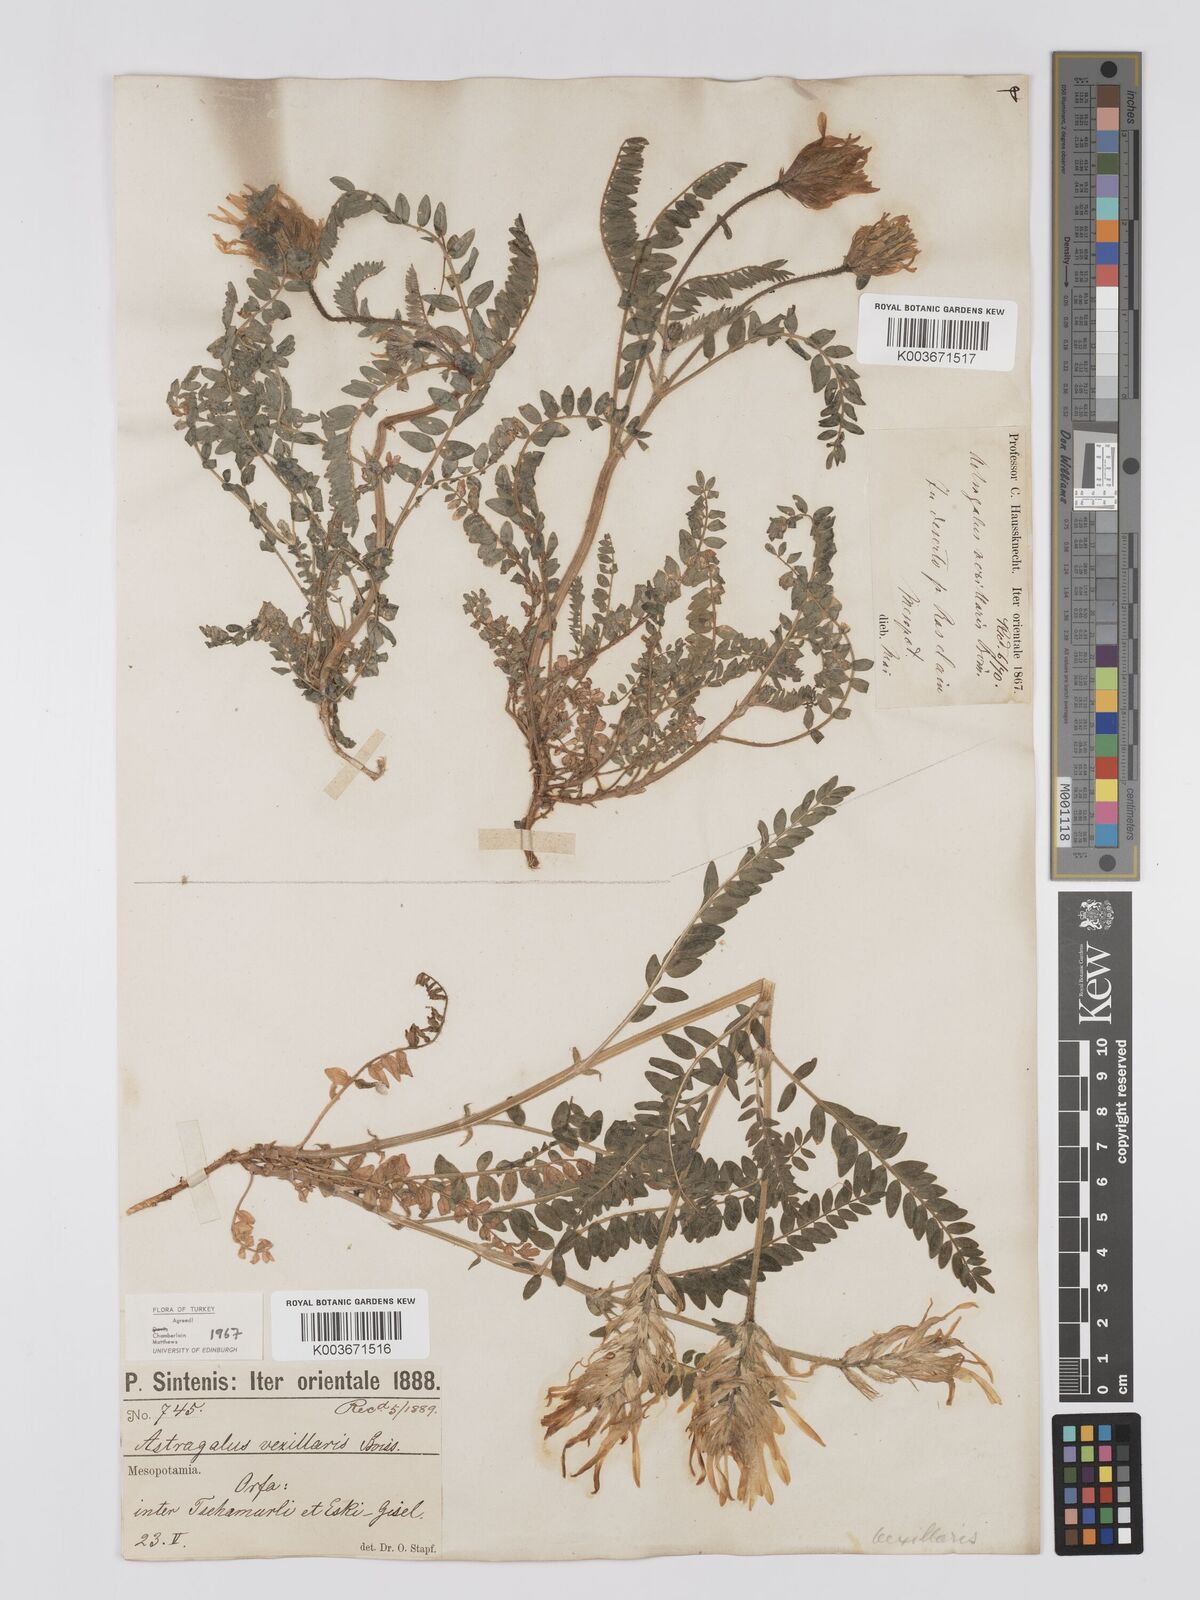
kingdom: Plantae
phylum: Tracheophyta
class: Magnoliopsida
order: Fabales
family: Fabaceae
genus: Astragalus
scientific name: Astragalus vexillaris
